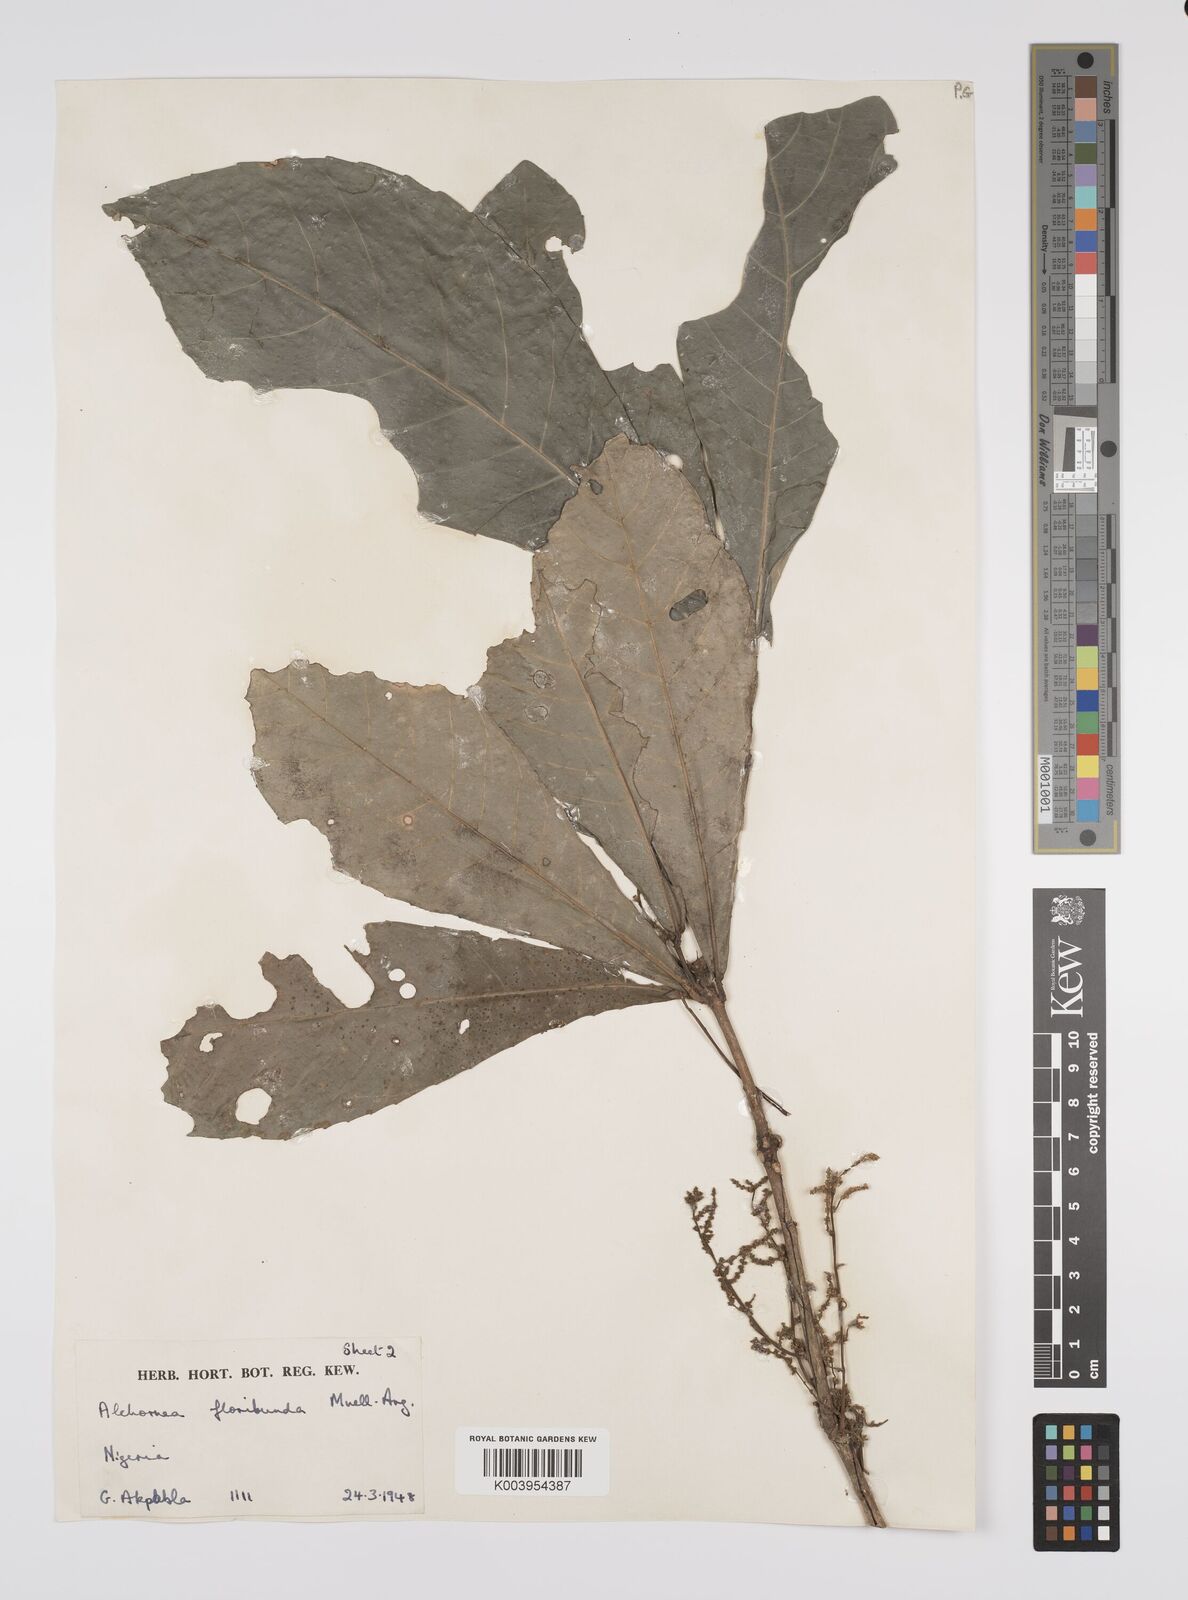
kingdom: Plantae
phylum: Tracheophyta
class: Magnoliopsida
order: Malpighiales
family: Euphorbiaceae
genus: Alchornea
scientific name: Alchornea floribunda
